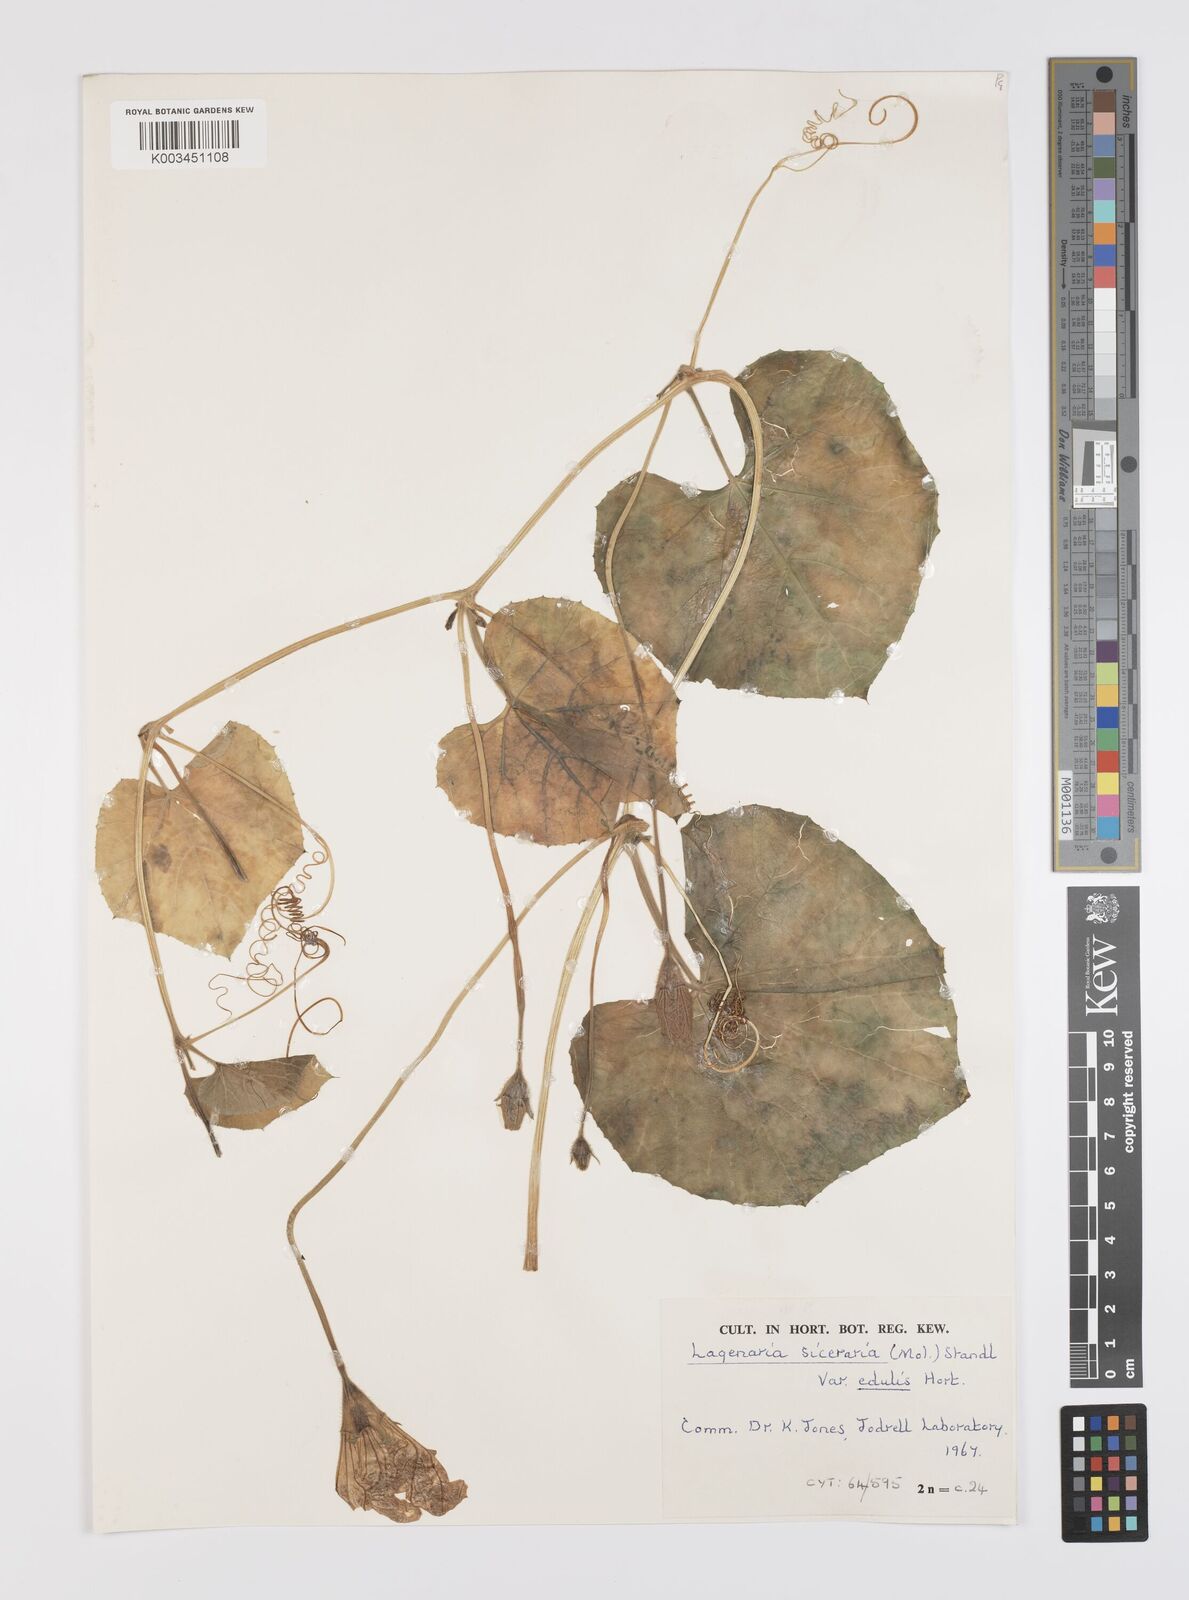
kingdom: Plantae
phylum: Tracheophyta
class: Magnoliopsida
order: Cucurbitales
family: Cucurbitaceae
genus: Lagenaria
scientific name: Lagenaria siceraria
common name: Bottle gourd
